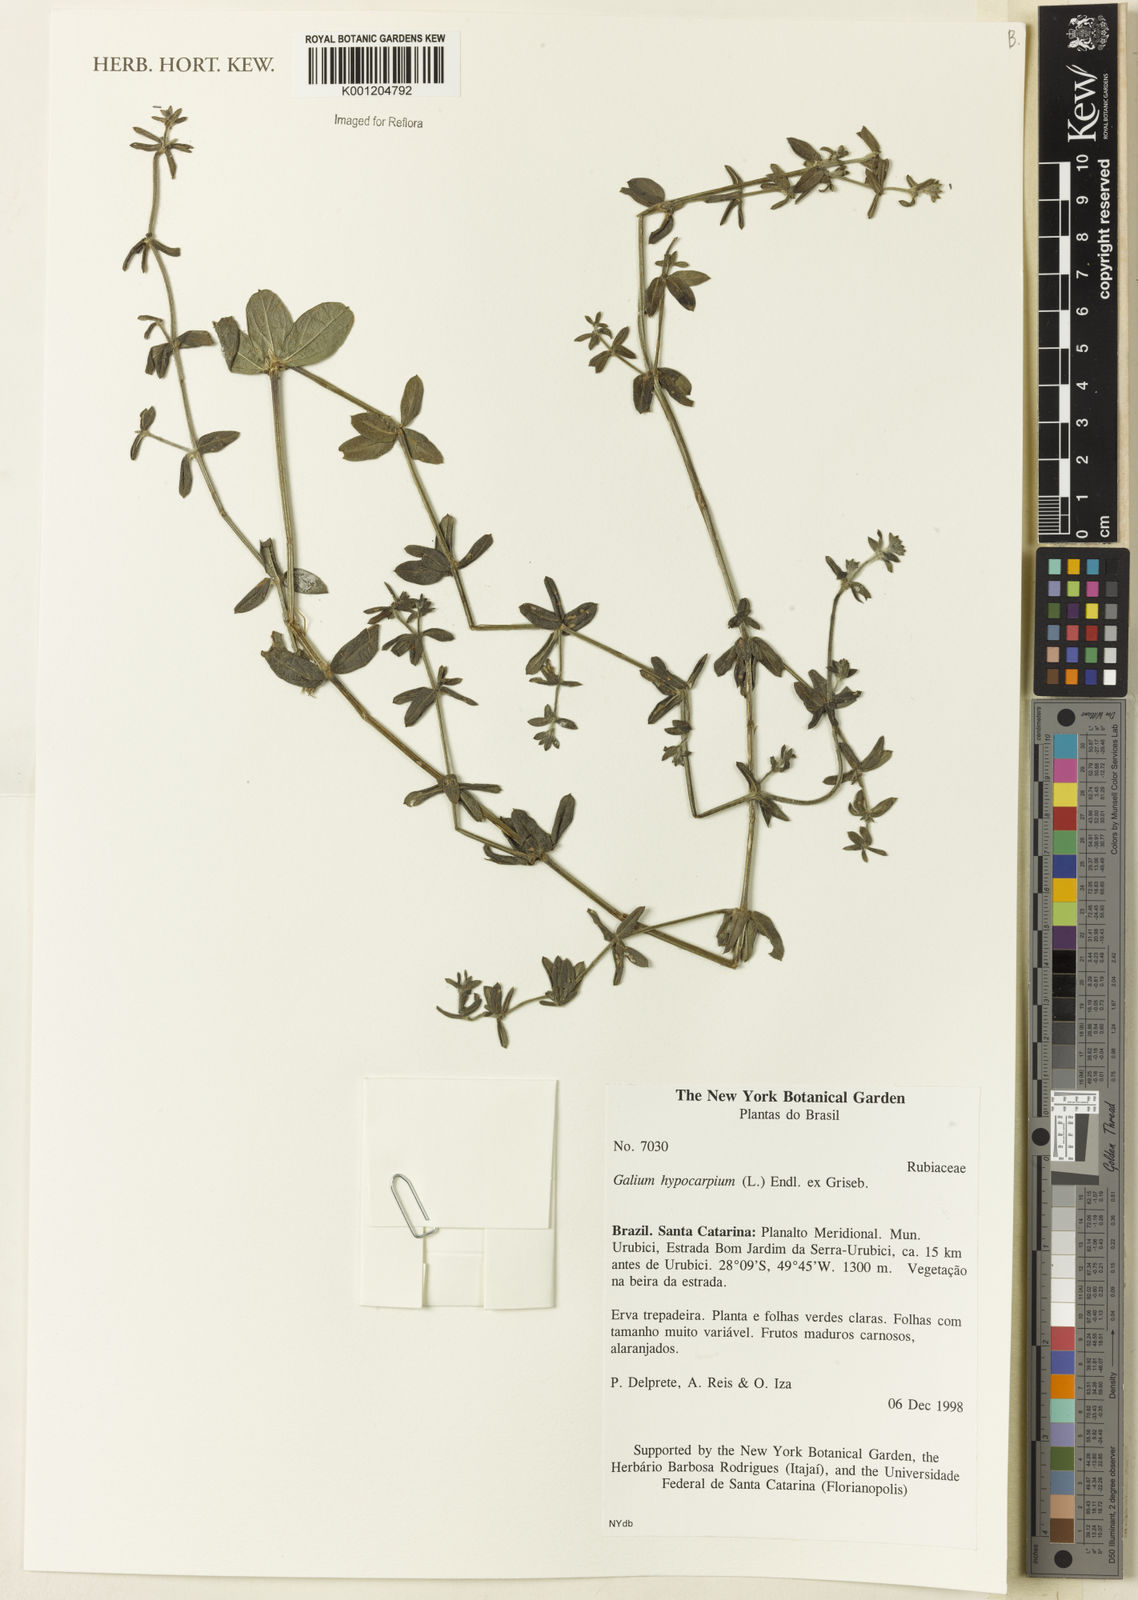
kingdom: Plantae
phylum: Tracheophyta
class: Magnoliopsida
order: Gentianales
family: Rubiaceae
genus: Galium
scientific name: Galium hypocarpium
